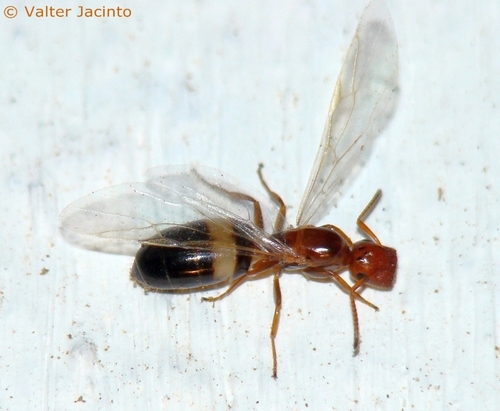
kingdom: Animalia
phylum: Arthropoda
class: Insecta
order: Hymenoptera
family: Formicidae
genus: Camponotus
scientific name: Camponotus truncatus
